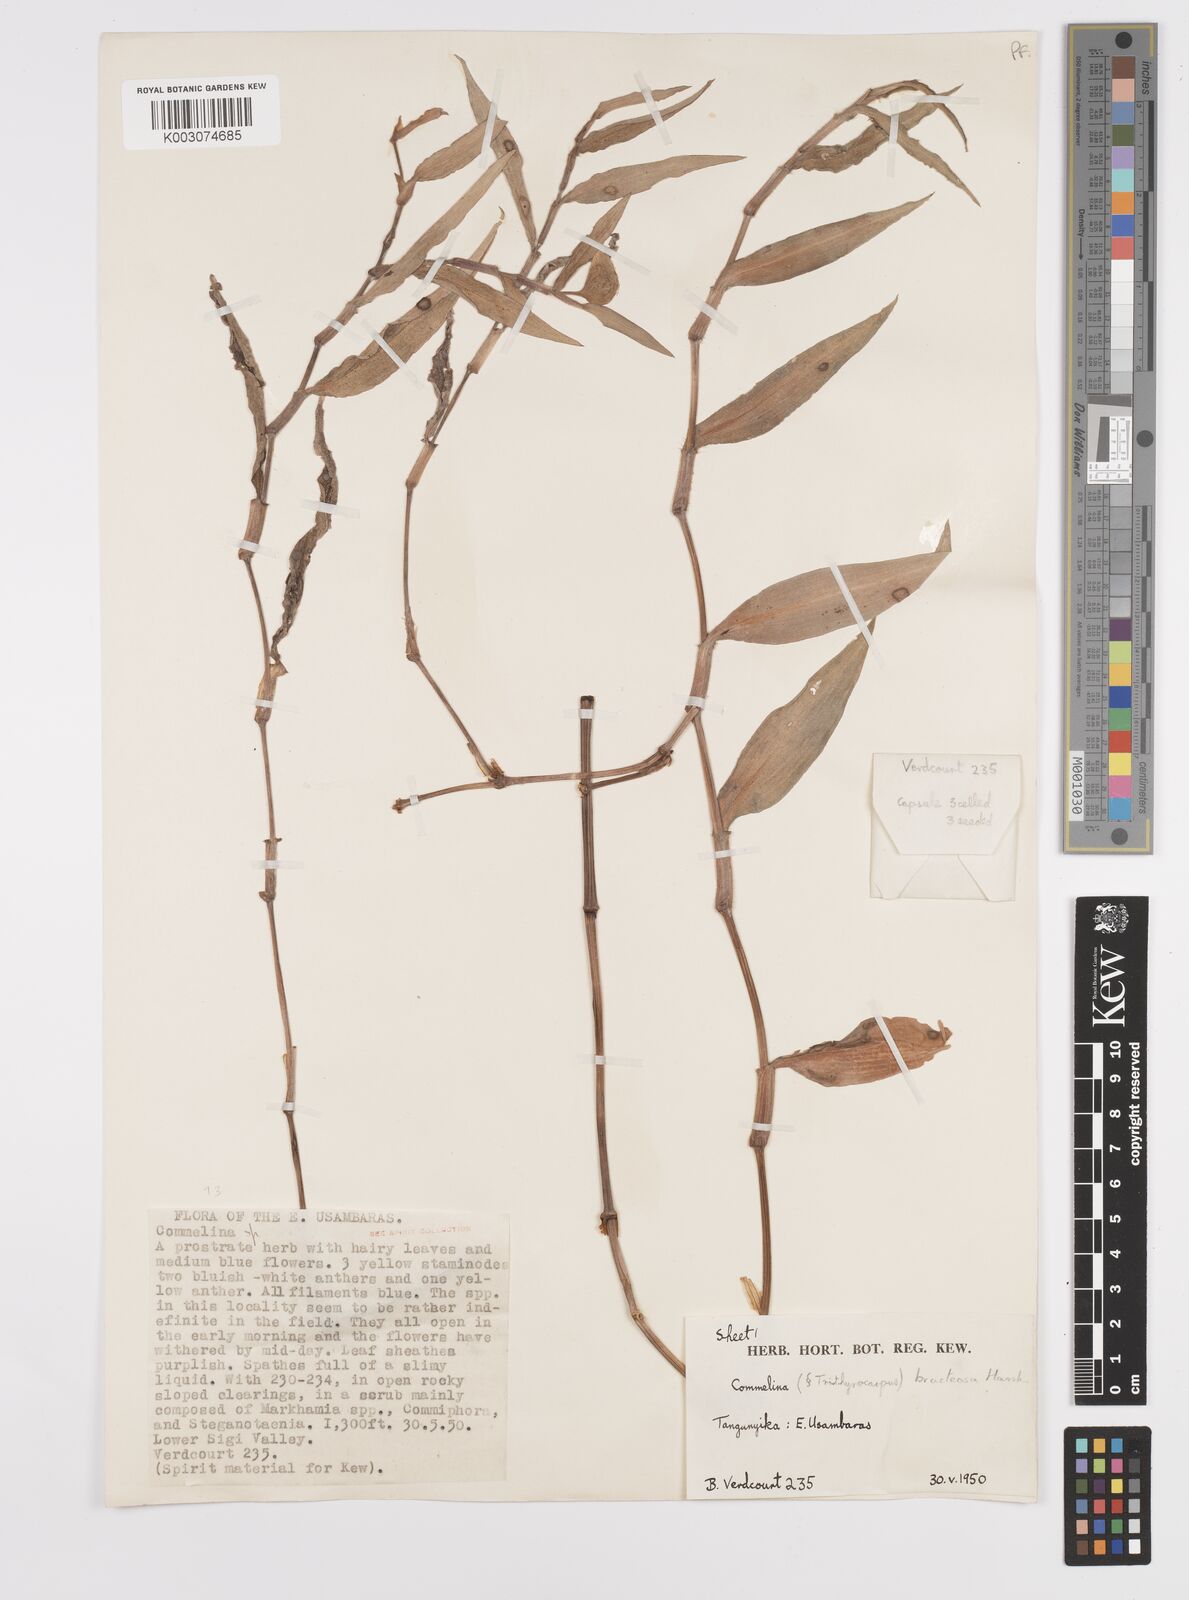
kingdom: Plantae
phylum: Tracheophyta
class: Liliopsida
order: Commelinales
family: Commelinaceae
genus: Commelina
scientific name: Commelina bracteosa
